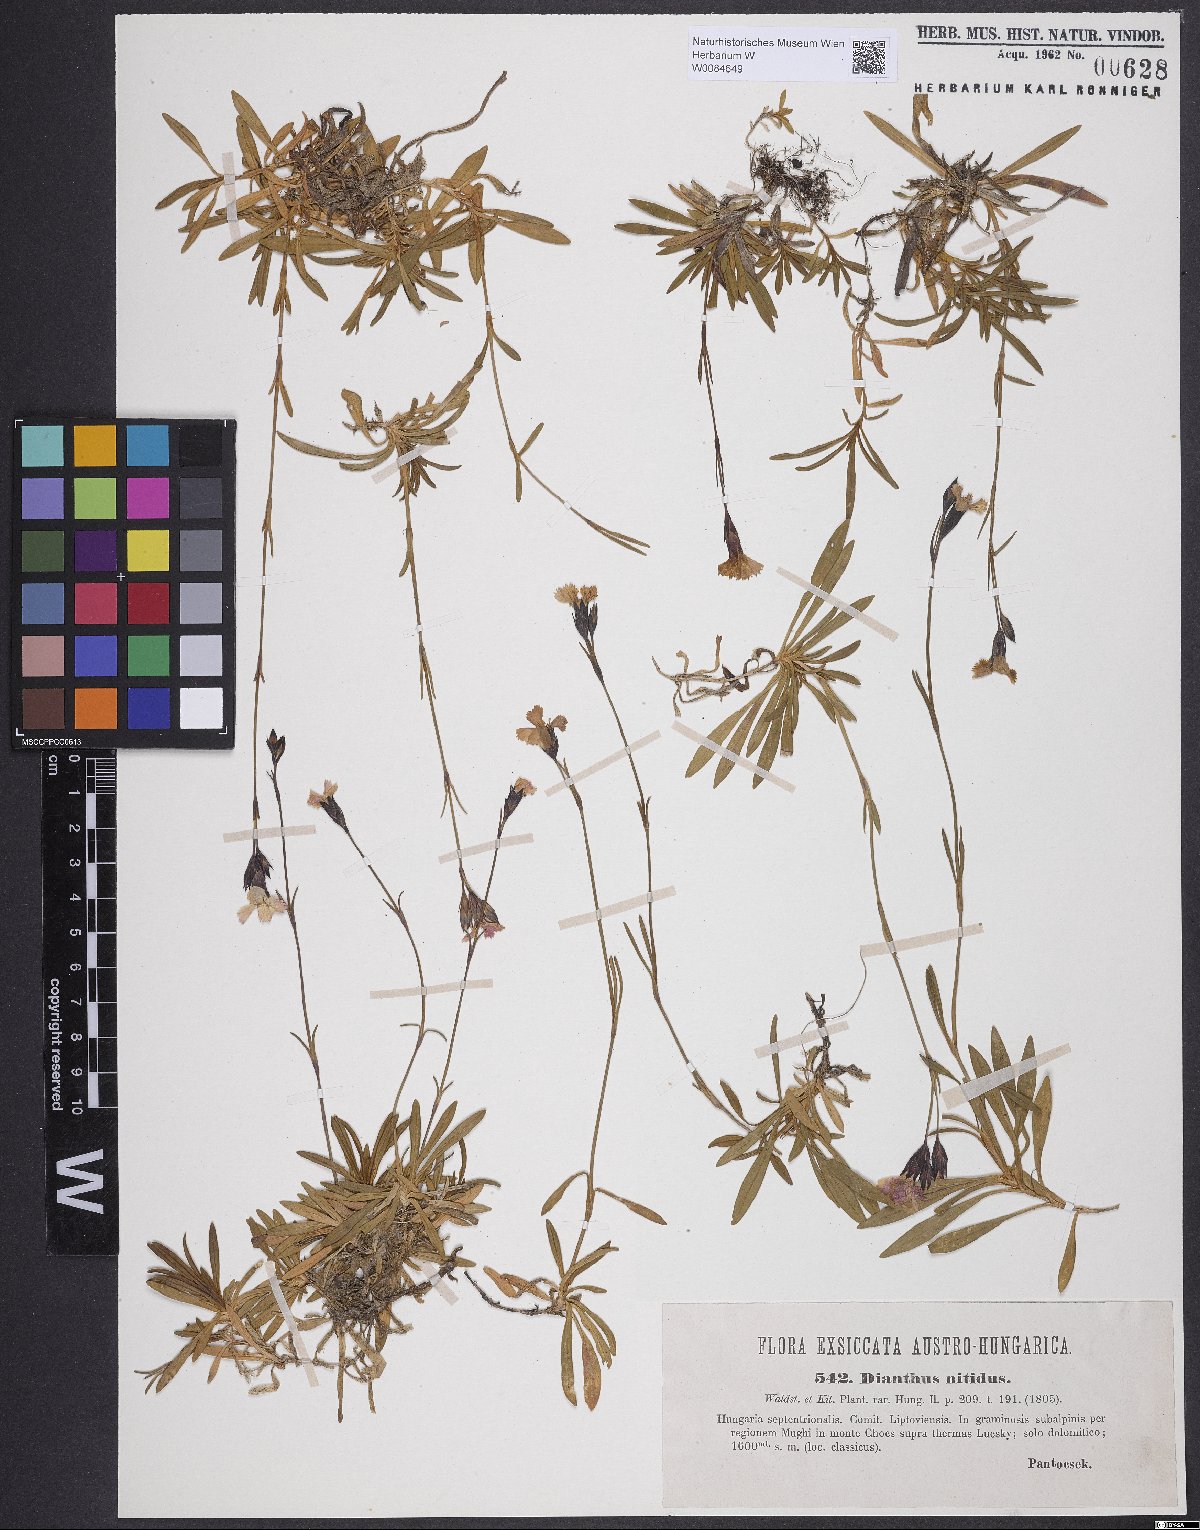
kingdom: Plantae
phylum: Tracheophyta
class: Magnoliopsida
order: Caryophyllales
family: Caryophyllaceae
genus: Dianthus
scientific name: Dianthus nitidus
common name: Carpathian glossy pink
